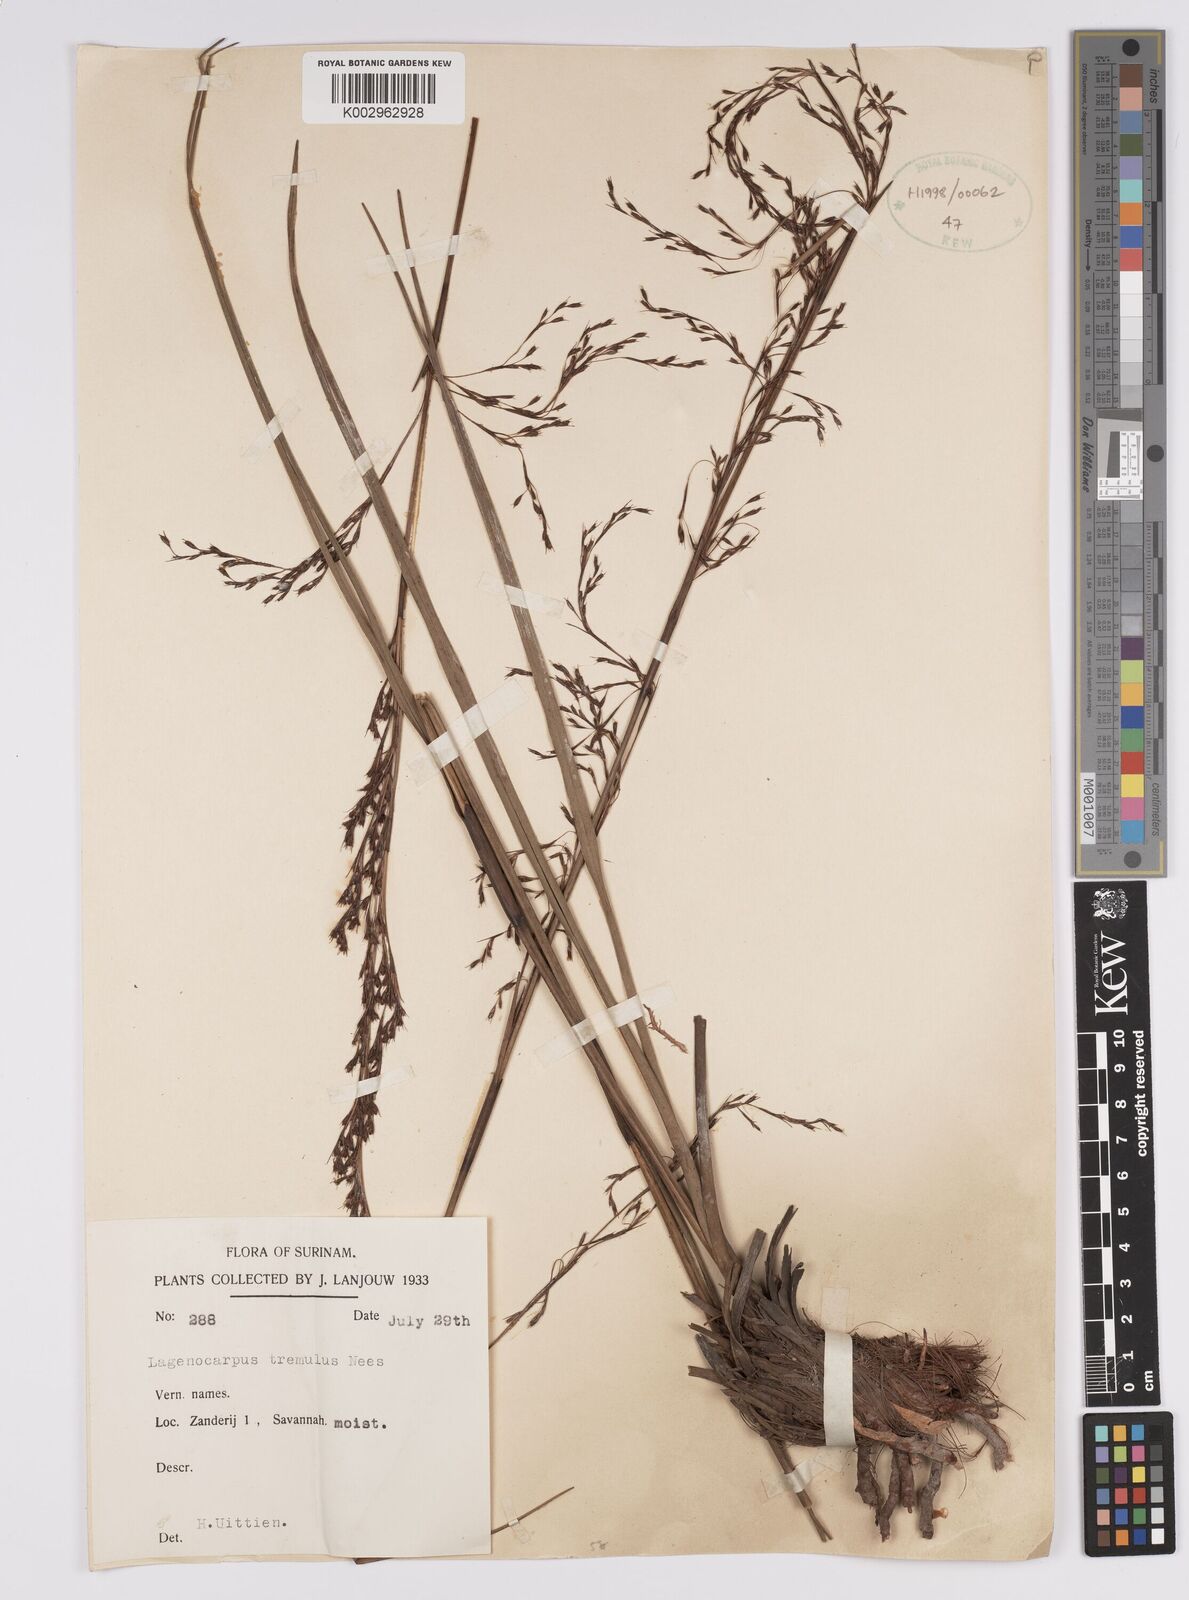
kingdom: Plantae
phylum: Tracheophyta
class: Liliopsida
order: Poales
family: Cyperaceae
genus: Lagenocarpus
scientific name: Lagenocarpus rigidus
